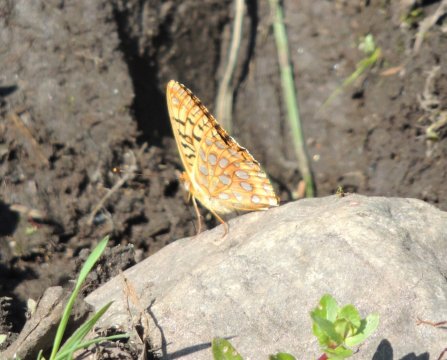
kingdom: Animalia
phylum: Arthropoda
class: Insecta
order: Lepidoptera
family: Nymphalidae
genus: Speyeria
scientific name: Speyeria coronis
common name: Coronis Fritillary
